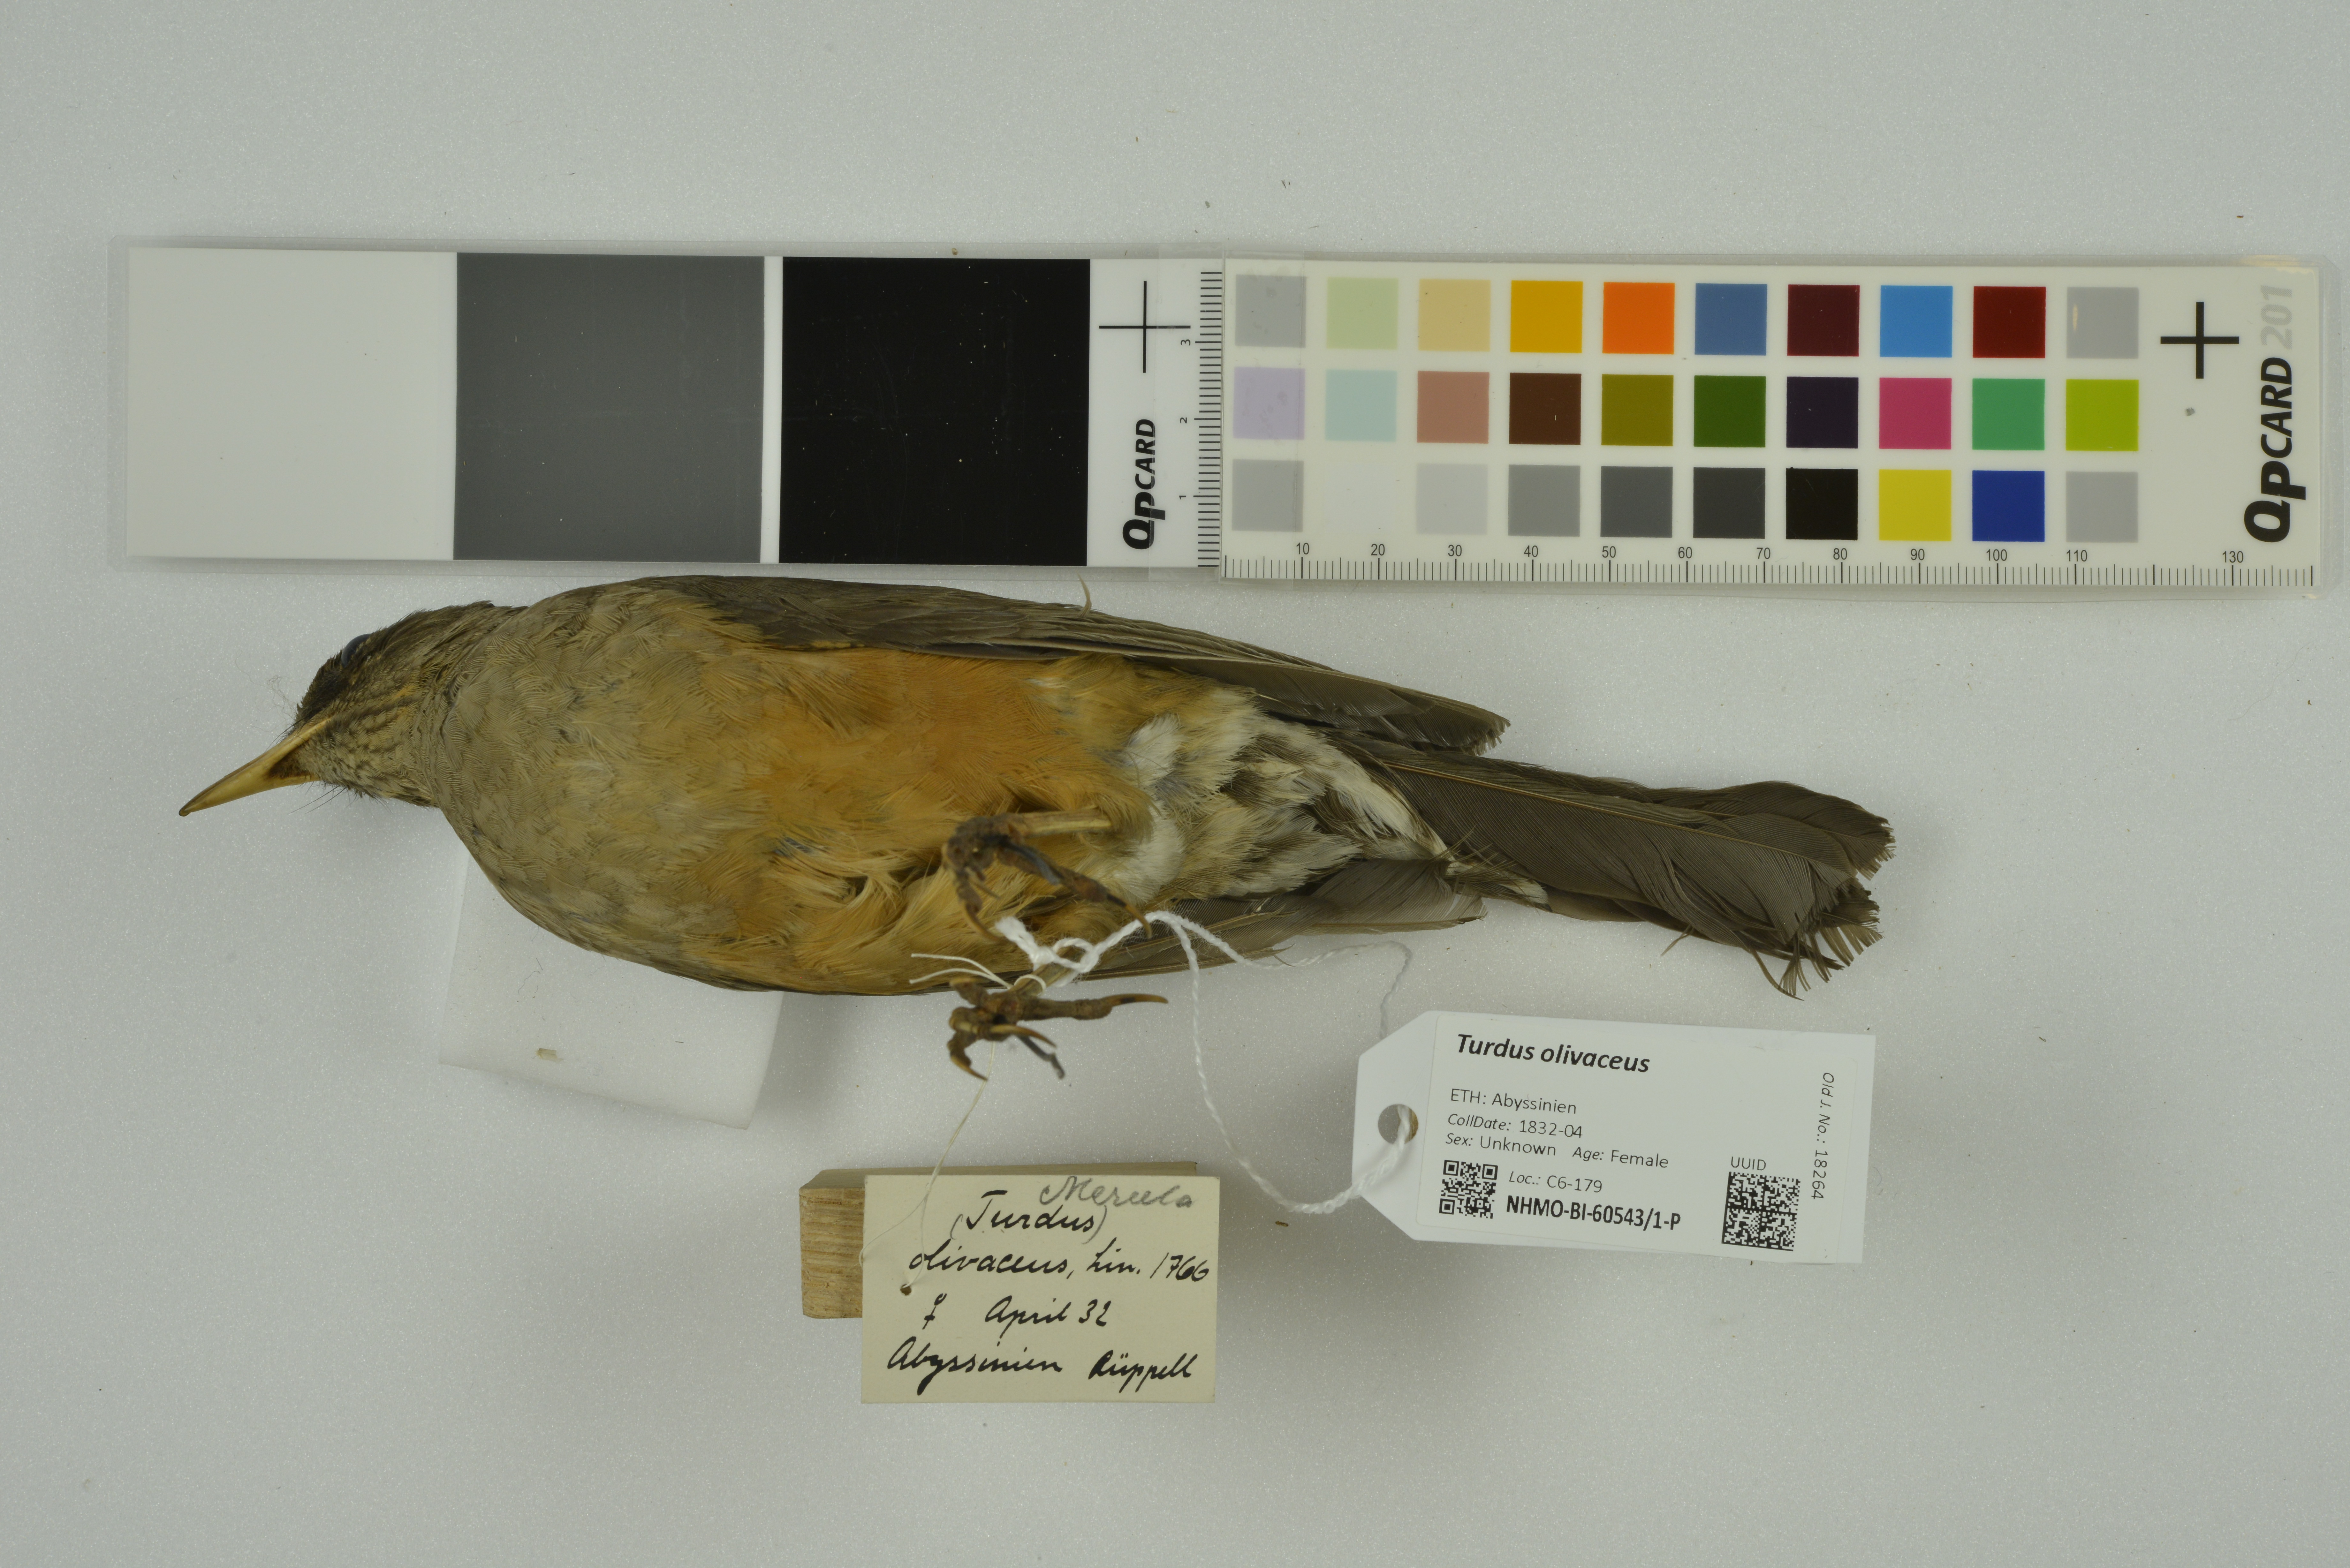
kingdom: Animalia
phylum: Chordata
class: Aves
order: Passeriformes
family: Turdidae
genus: Turdus
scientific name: Turdus olivaceus
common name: Olive thrush
